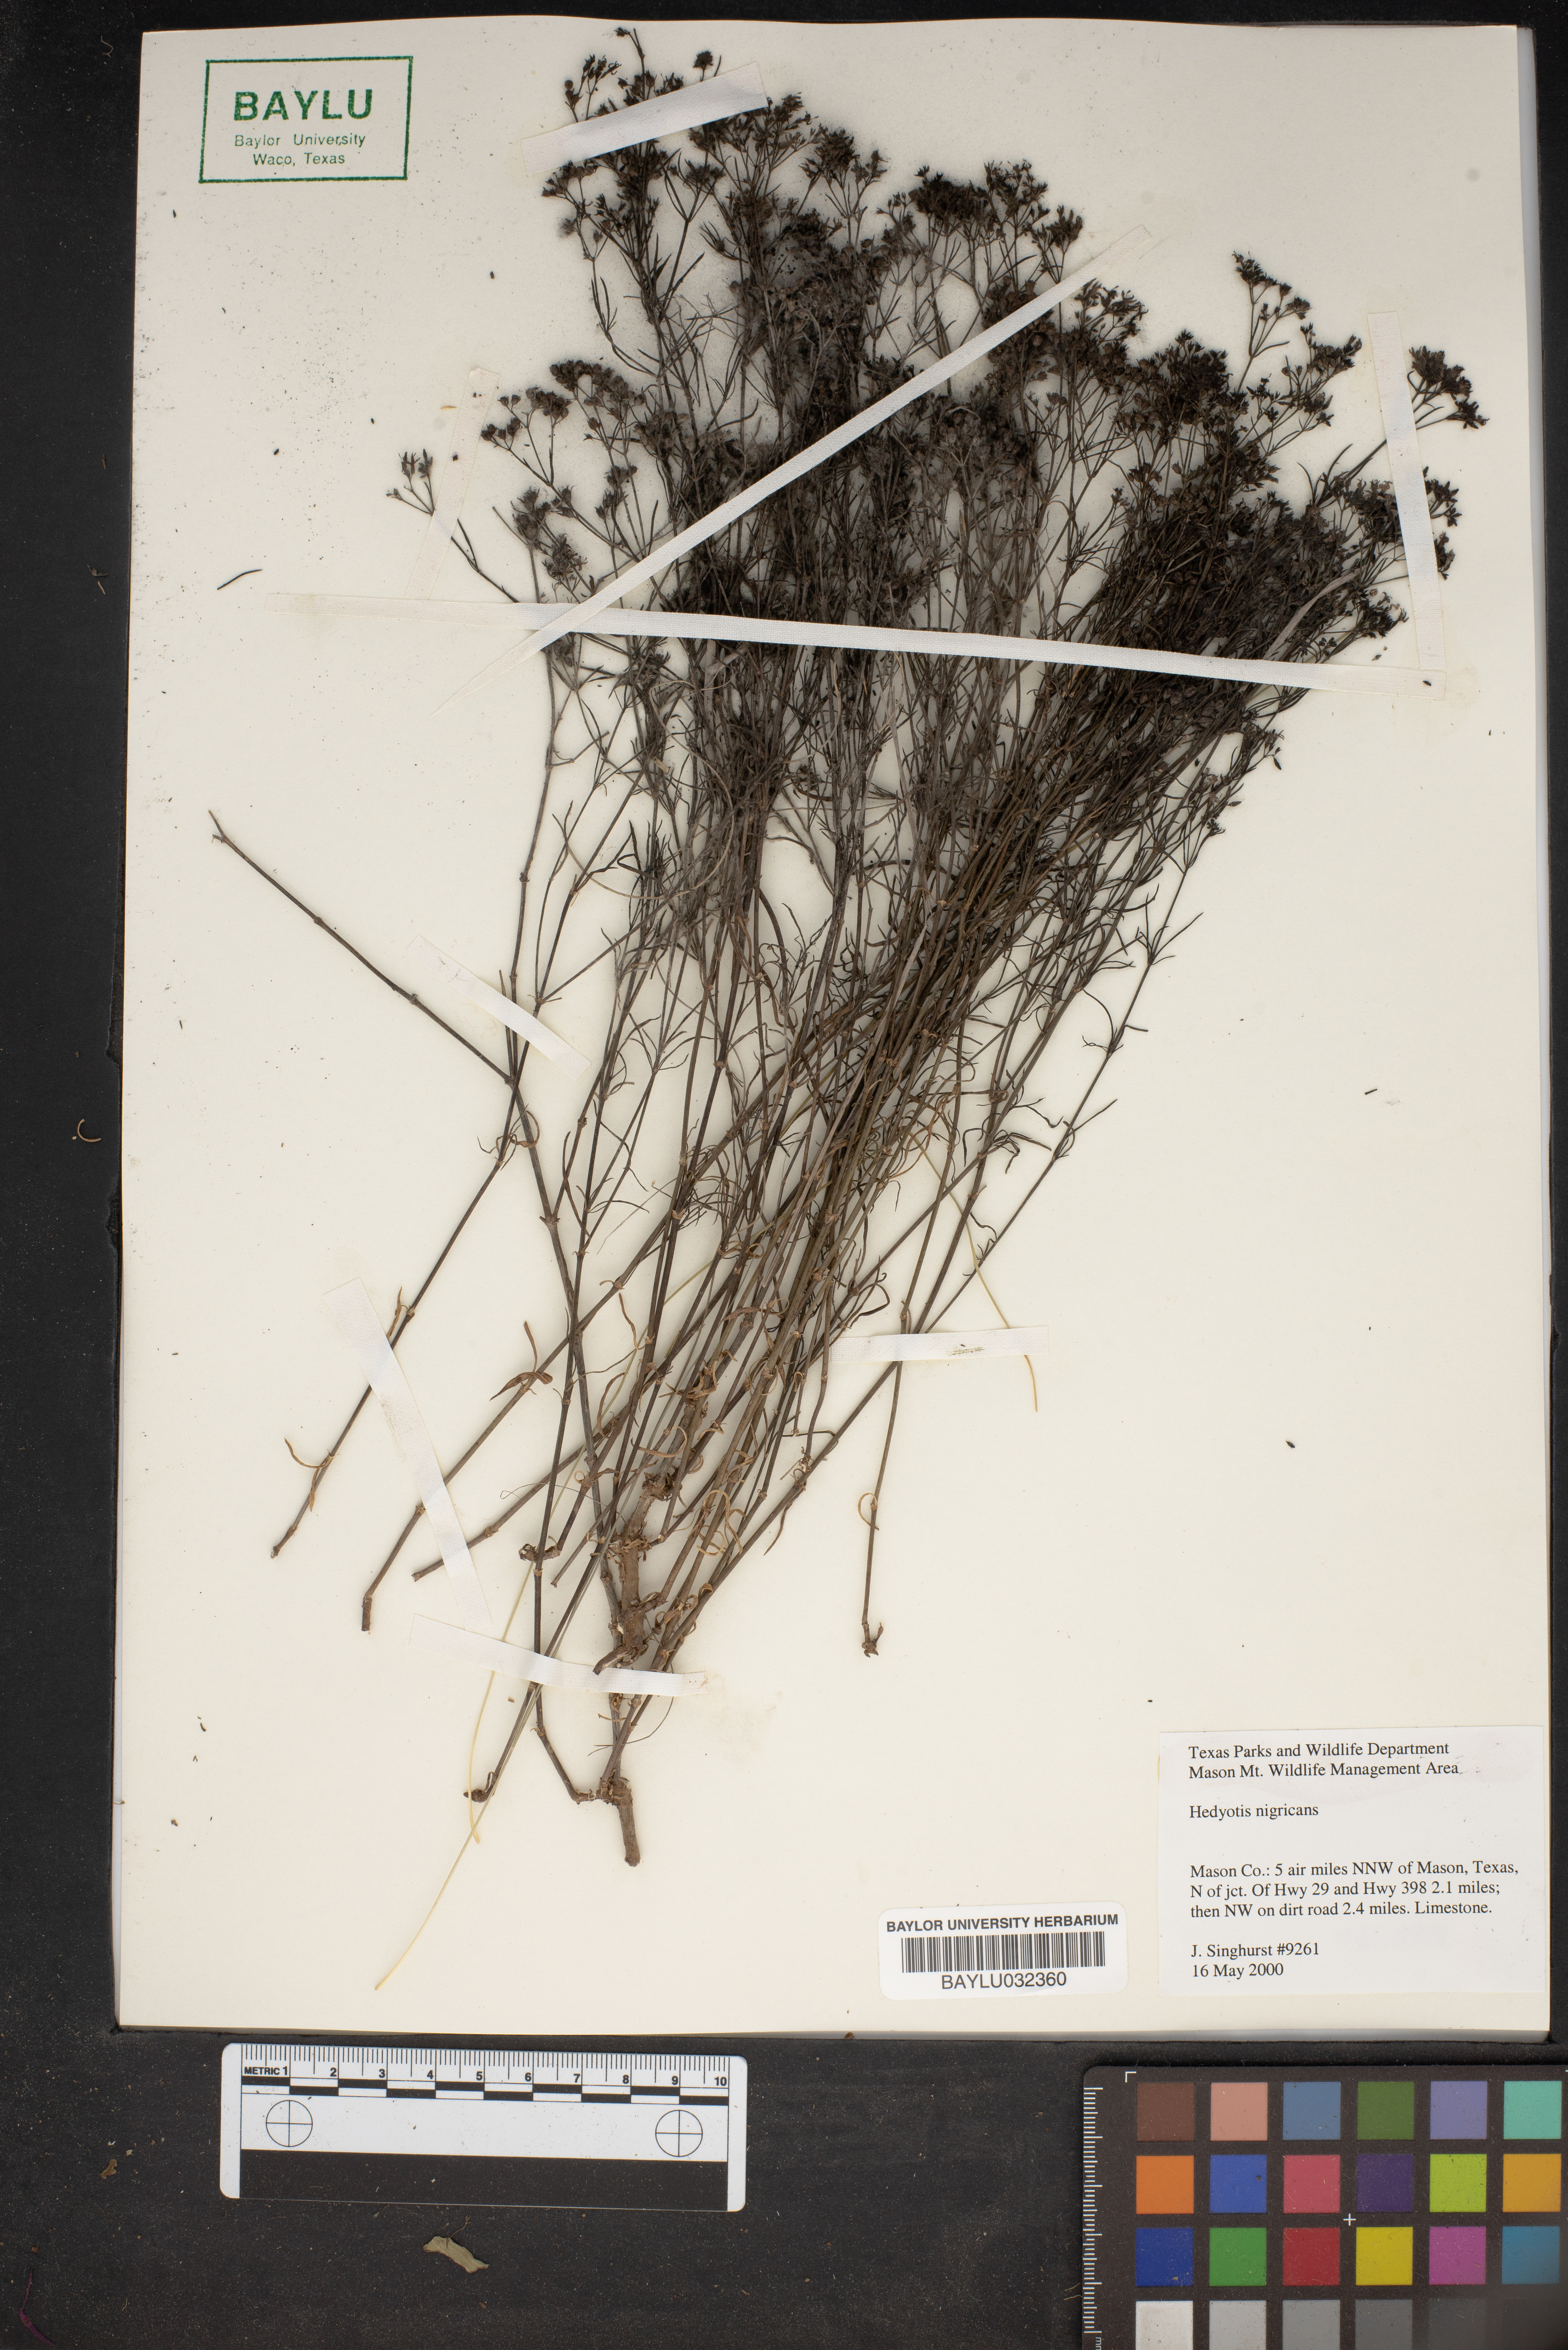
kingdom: Plantae
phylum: Tracheophyta
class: Magnoliopsida
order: Gentianales
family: Rubiaceae
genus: Stenaria
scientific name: Stenaria nigricans
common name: Diamondflowers
